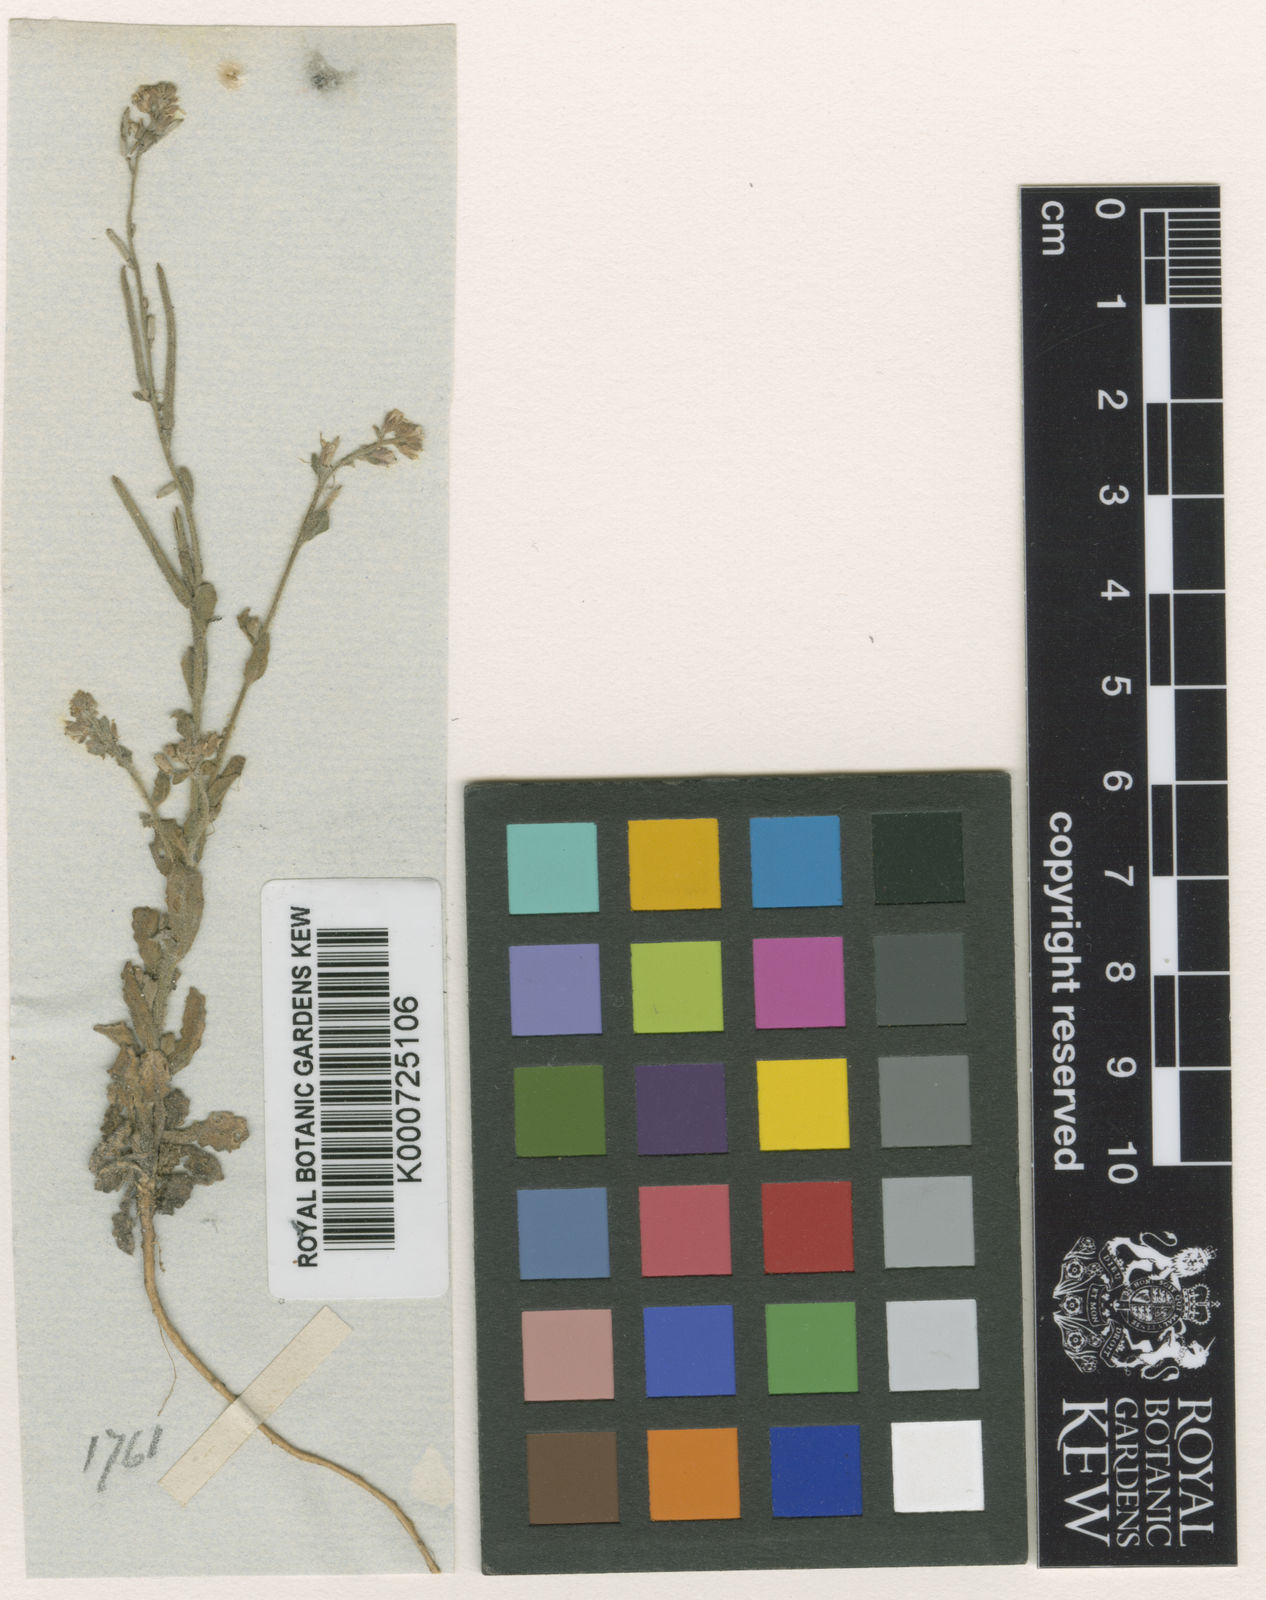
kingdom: Plantae
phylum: Tracheophyta
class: Magnoliopsida
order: Brassicales
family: Brassicaceae
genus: Crucihimalaya
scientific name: Crucihimalaya lasiocarpa
